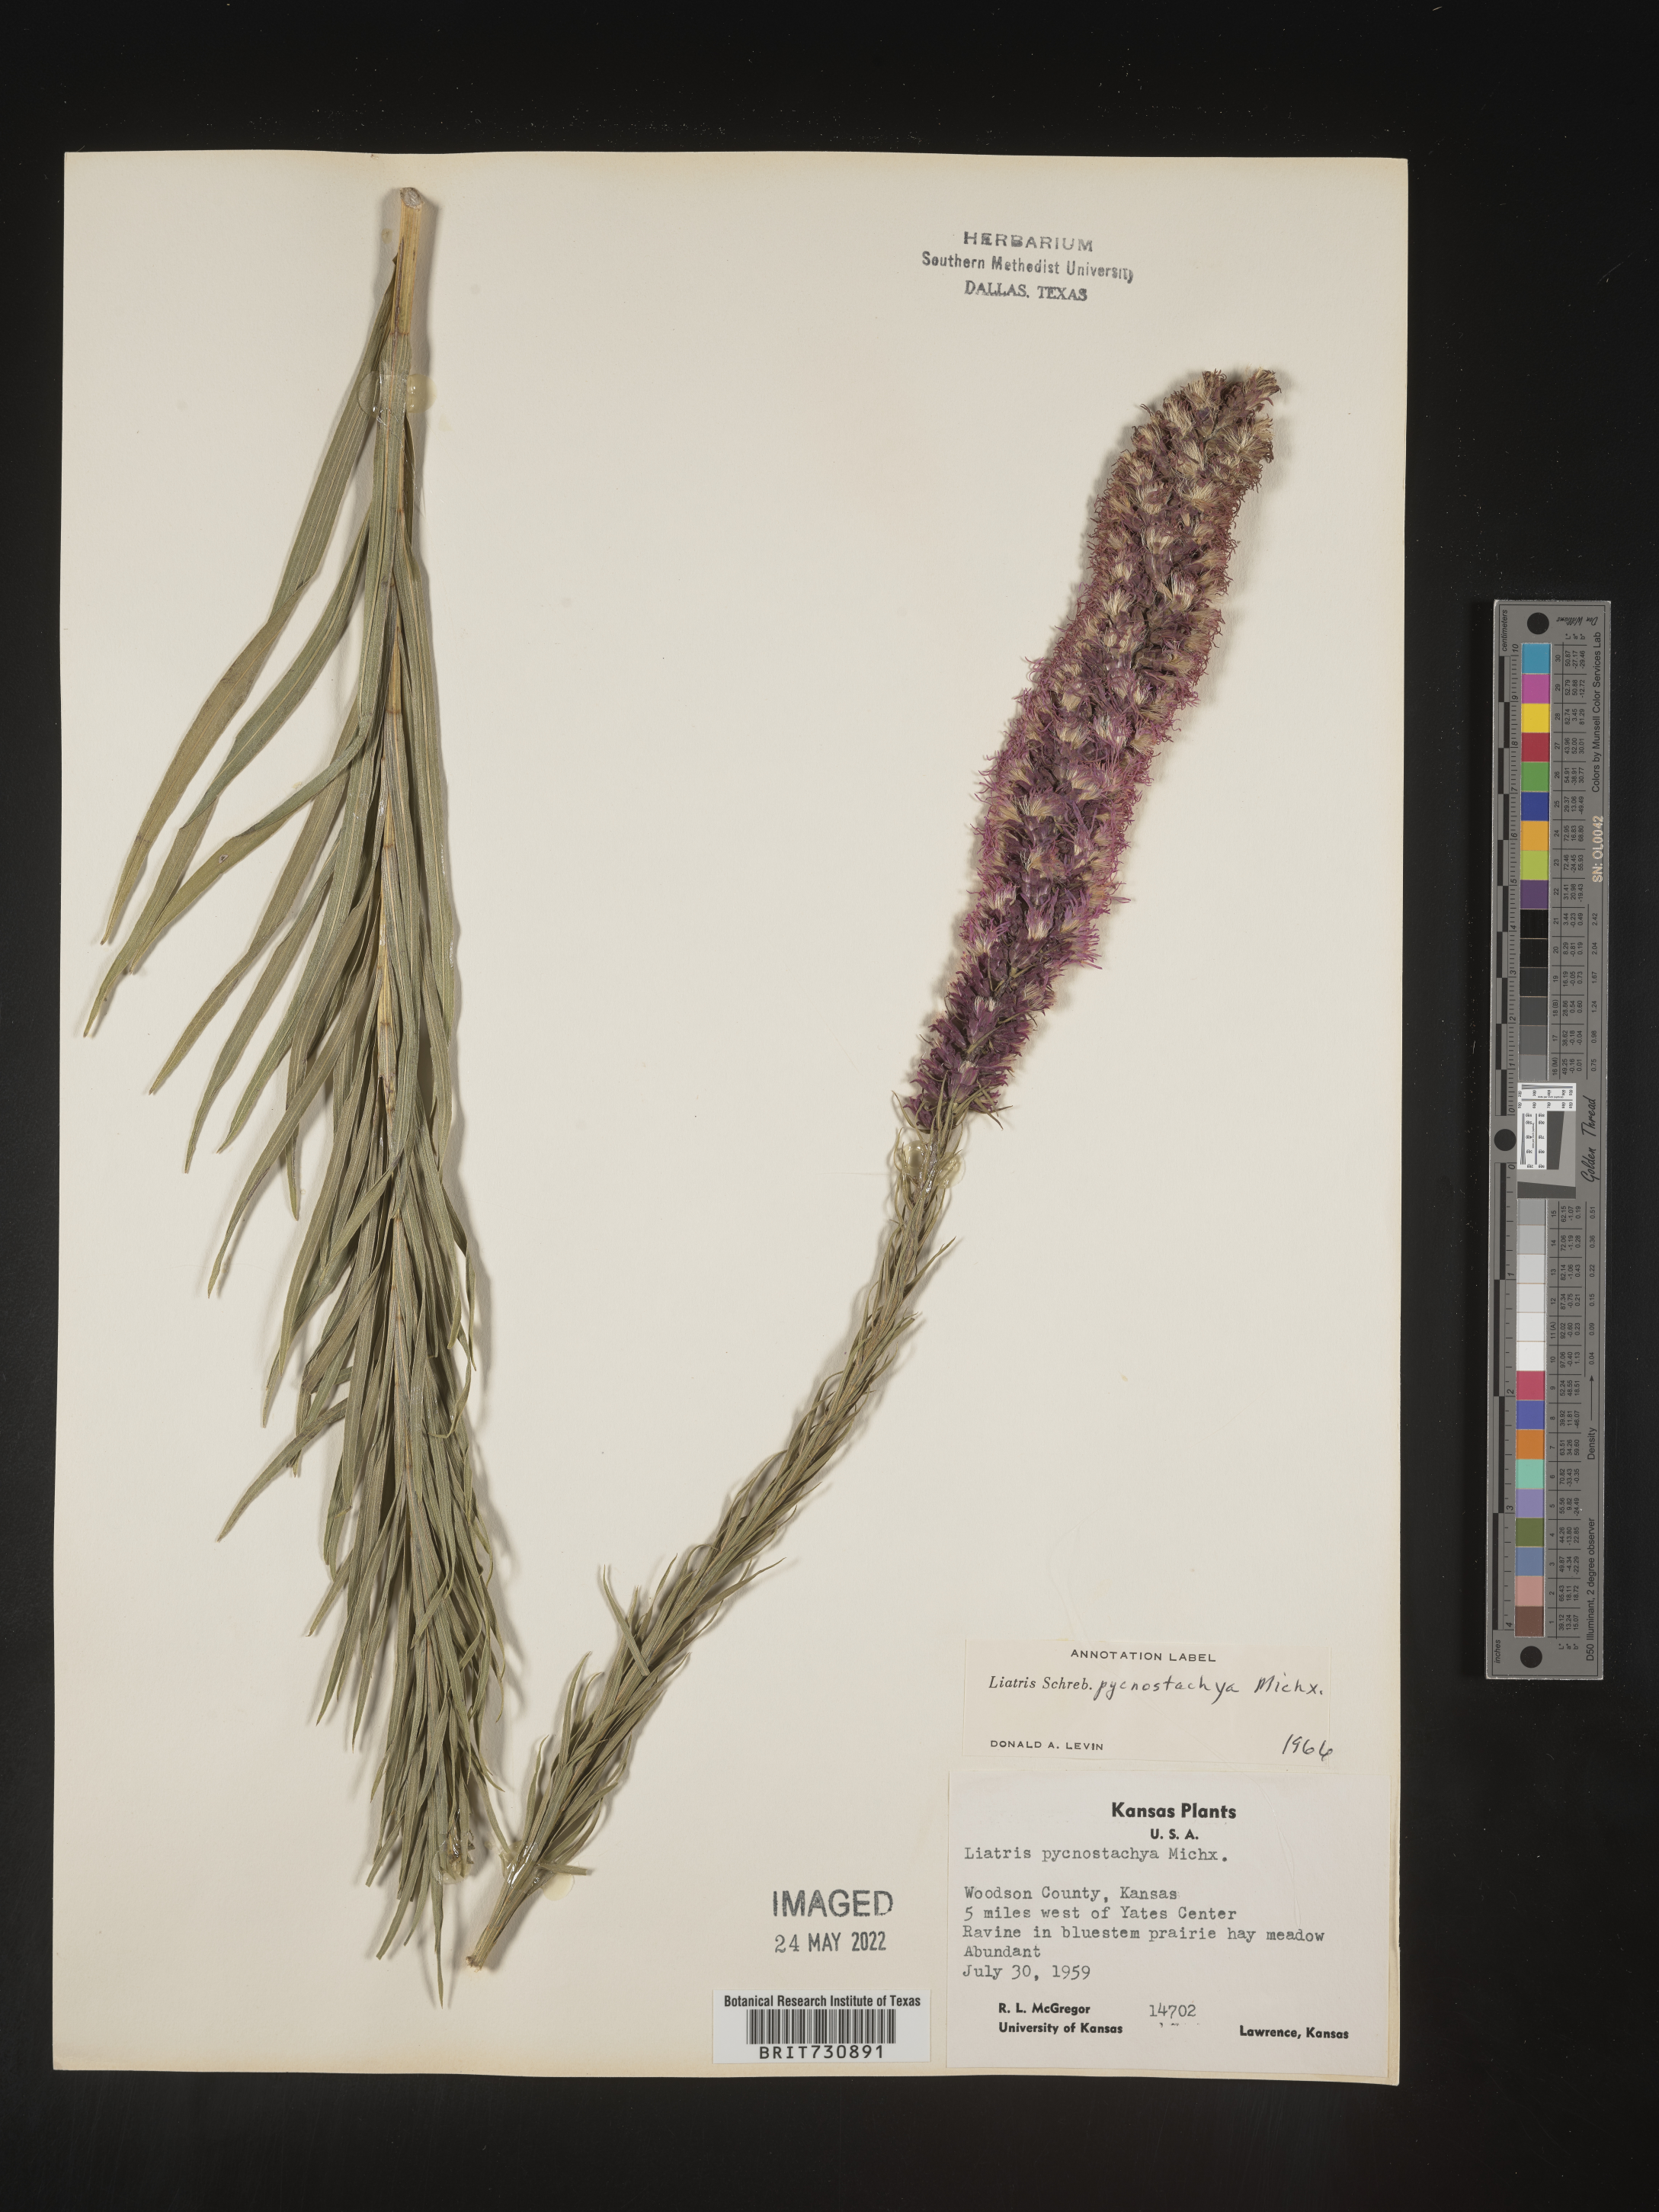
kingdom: Plantae
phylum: Tracheophyta
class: Magnoliopsida
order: Asterales
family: Asteraceae
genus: Liatris
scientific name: Liatris pycnostachya
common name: Cattail gayfeather
